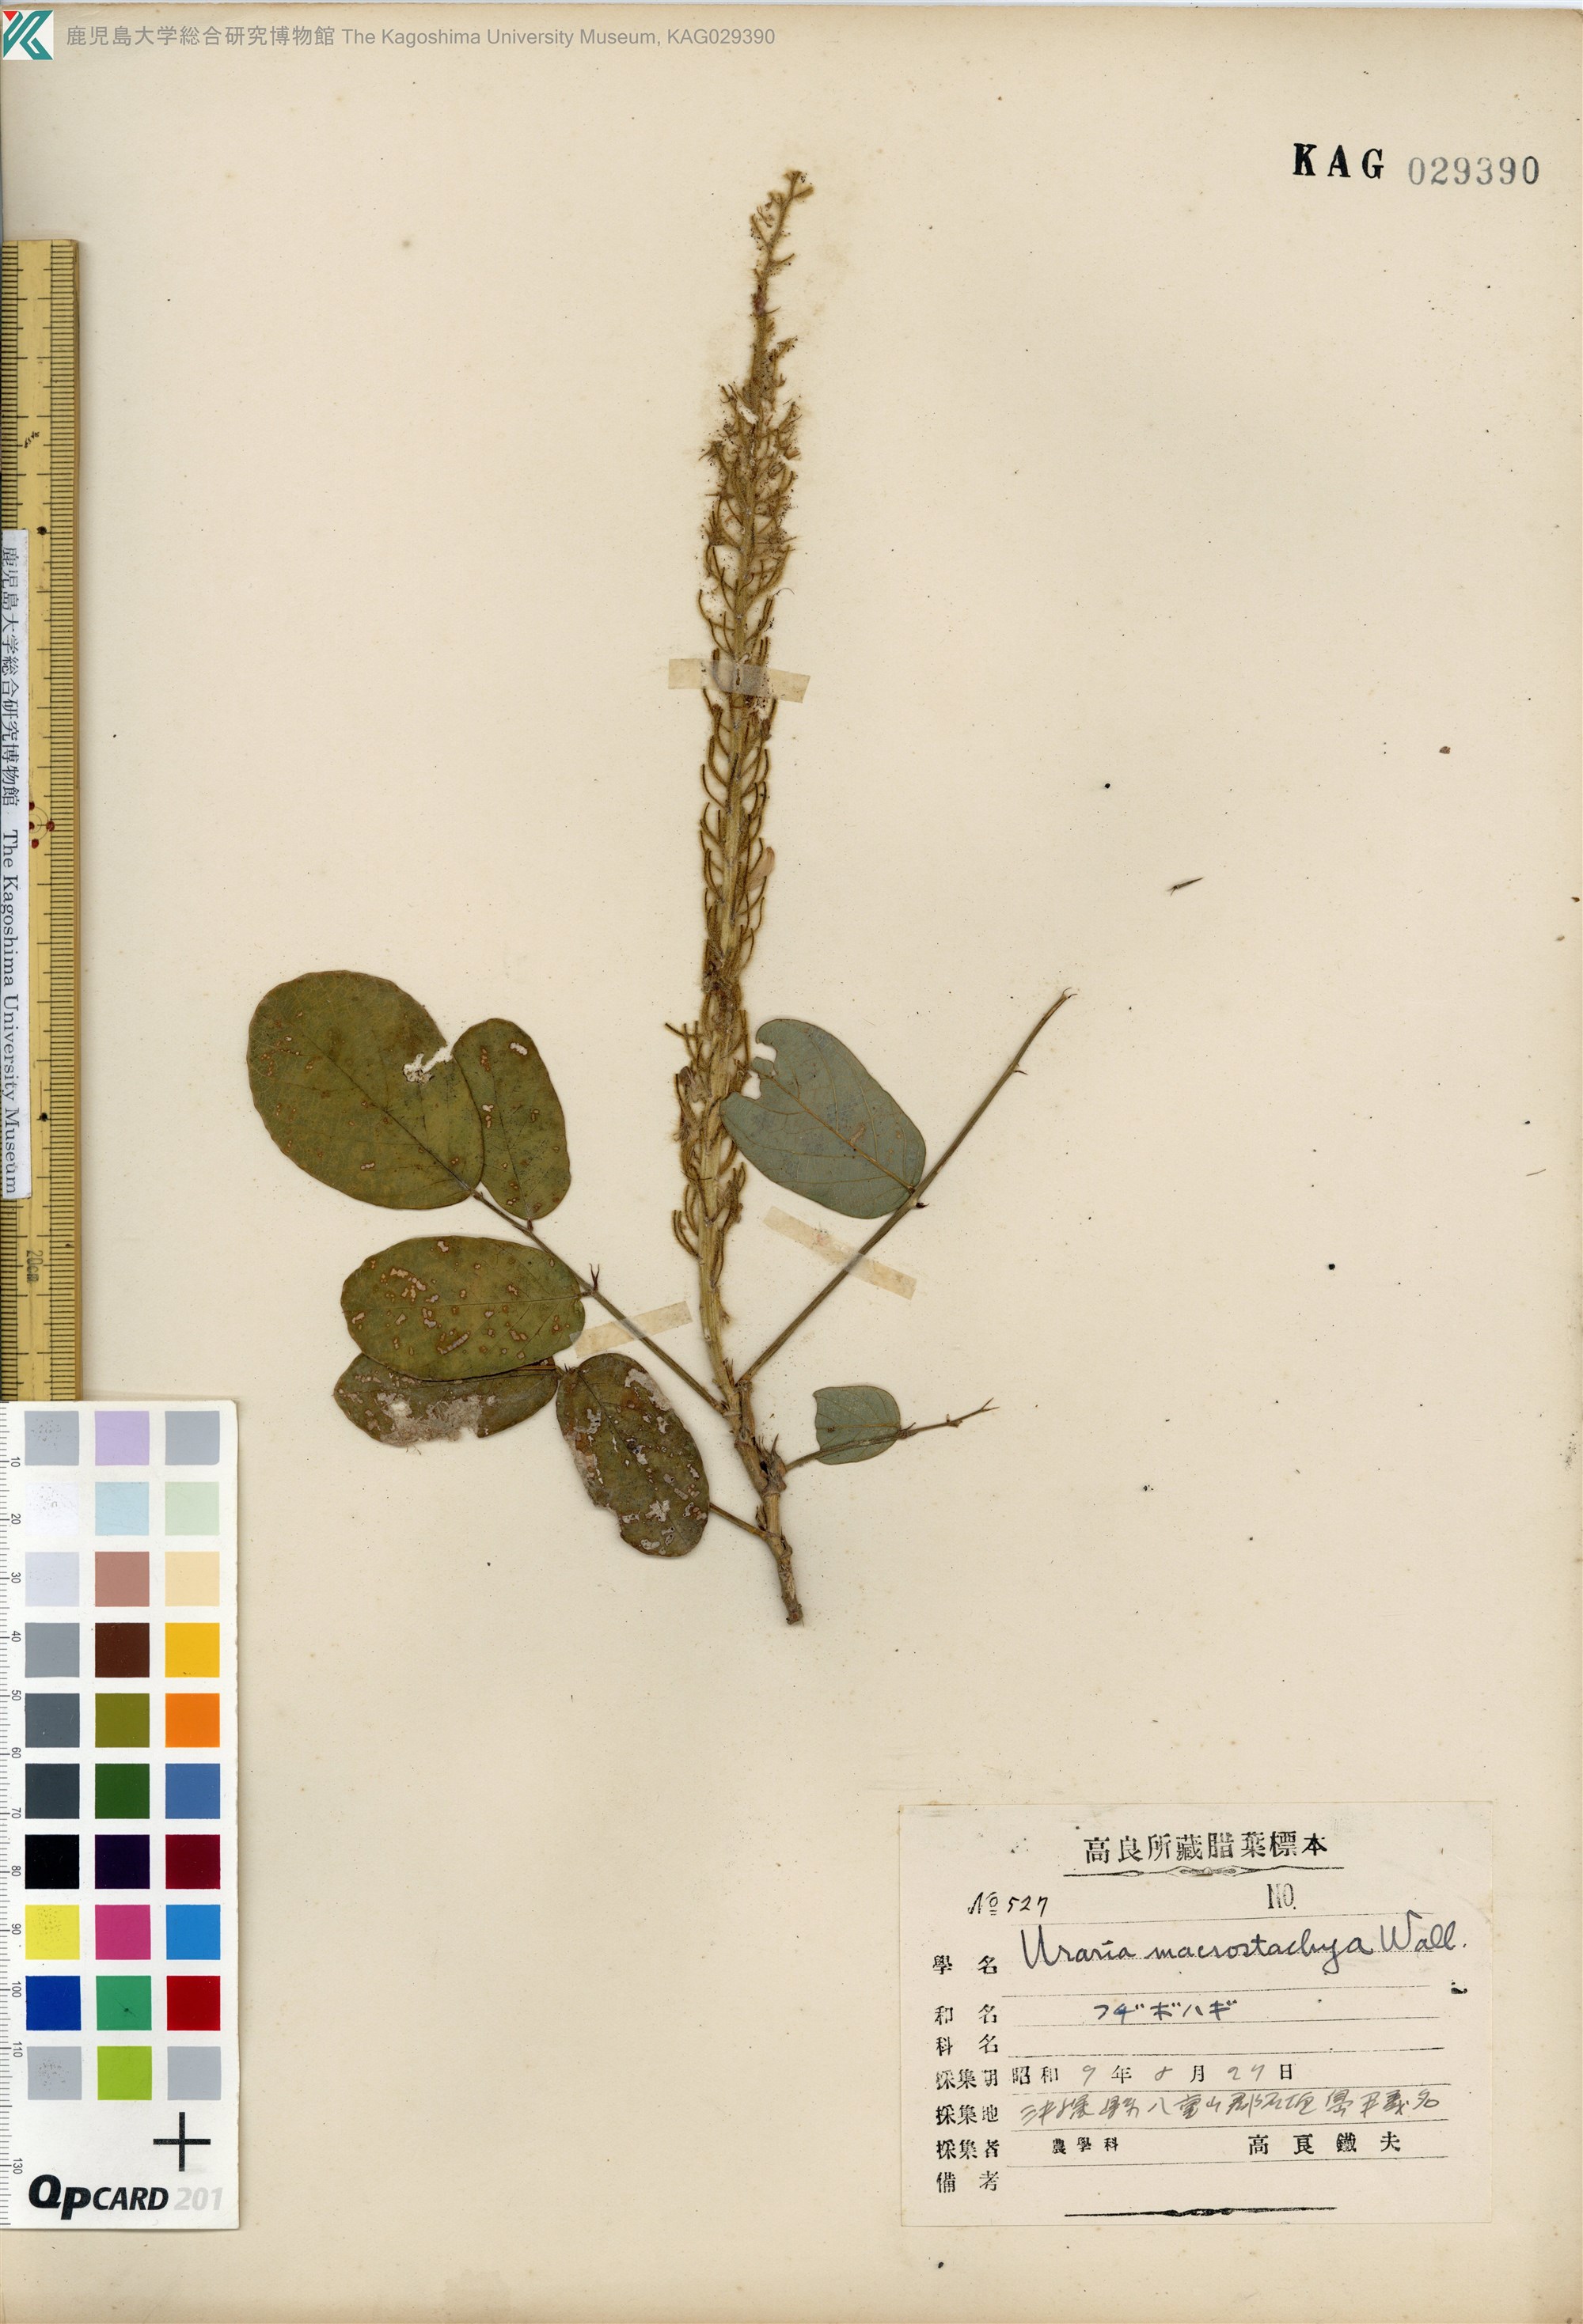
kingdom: Plantae
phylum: Tracheophyta
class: Magnoliopsida
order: Fabales
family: Fabaceae
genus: Uraria
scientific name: Uraria crinita
